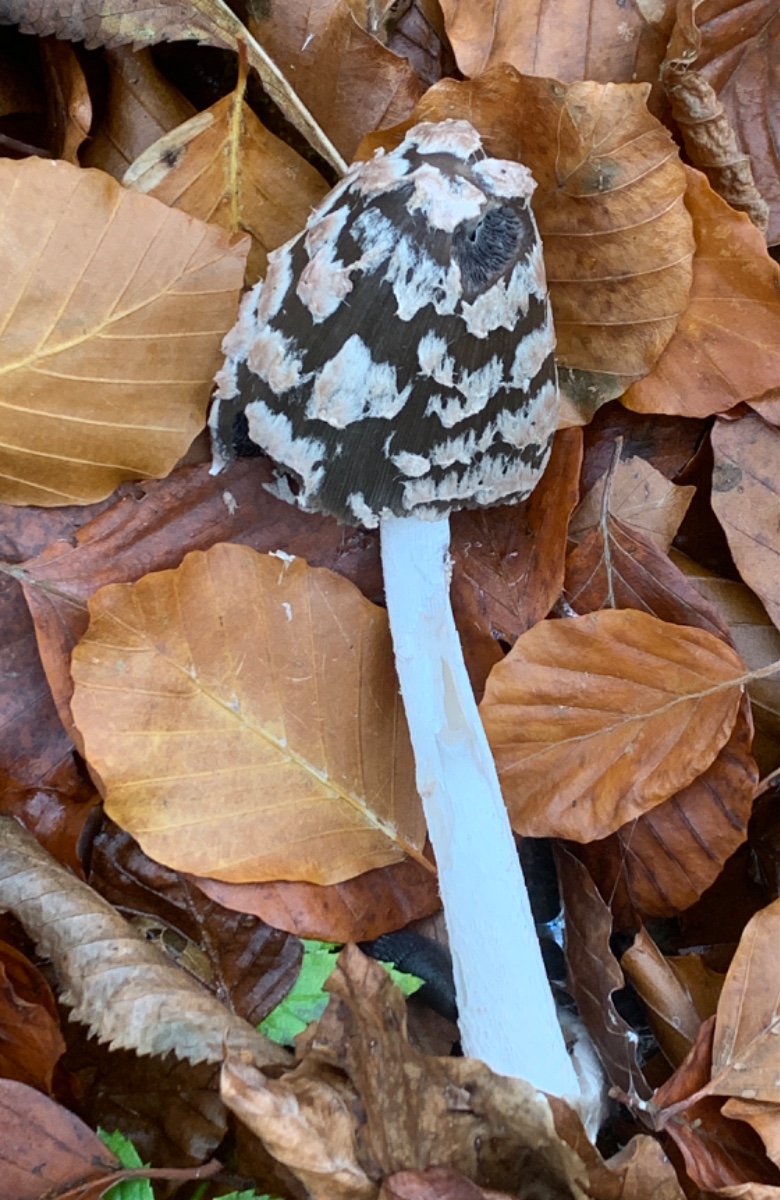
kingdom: Fungi
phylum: Basidiomycota
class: Agaricomycetes
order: Agaricales
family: Psathyrellaceae
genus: Coprinopsis
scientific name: Coprinopsis picacea
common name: skade-blækhat
